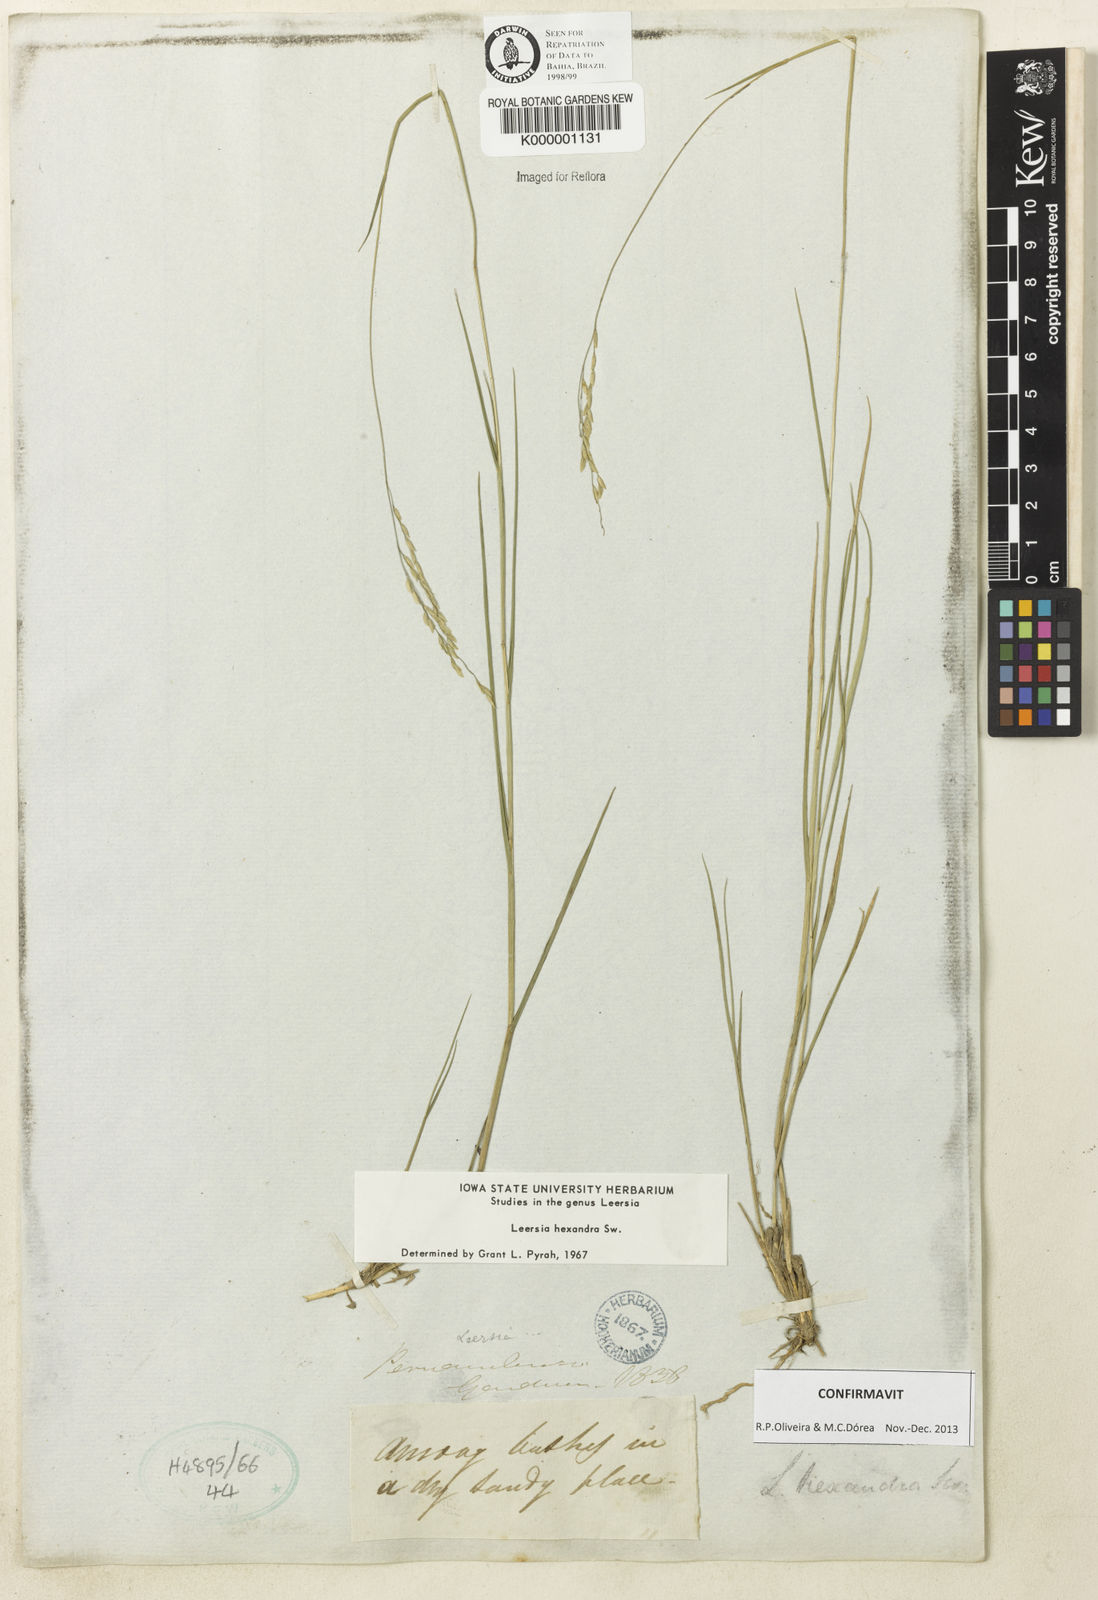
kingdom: Plantae
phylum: Tracheophyta
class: Liliopsida
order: Poales
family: Poaceae
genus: Leersia
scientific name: Leersia hexandra
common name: Southern cut grass
